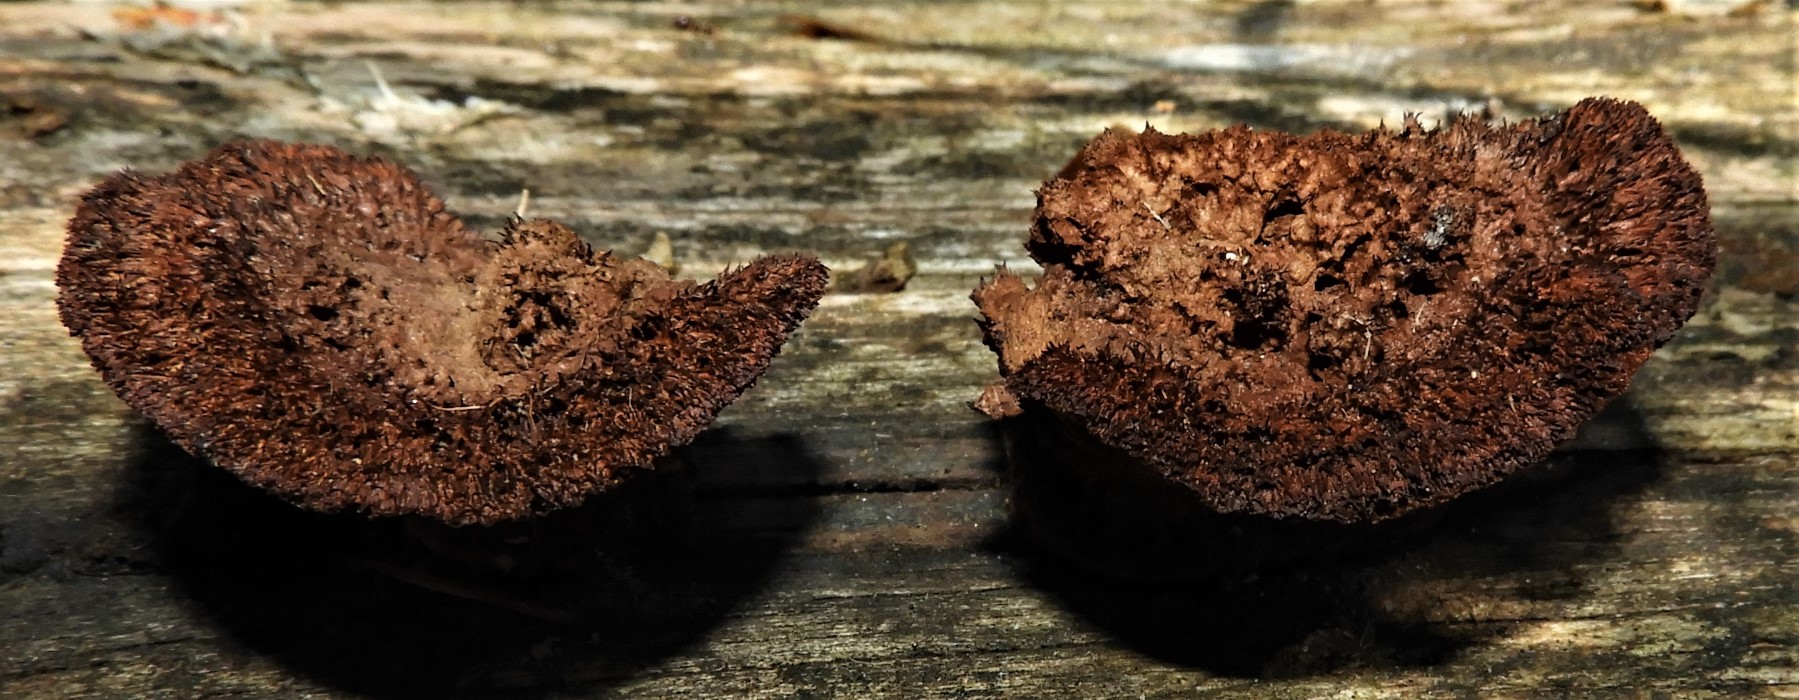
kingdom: Fungi
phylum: Basidiomycota
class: Agaricomycetes
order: Gloeophyllales
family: Gloeophyllaceae
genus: Gloeophyllum
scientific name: Gloeophyllum sepiarium
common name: fyrre-korkhat
